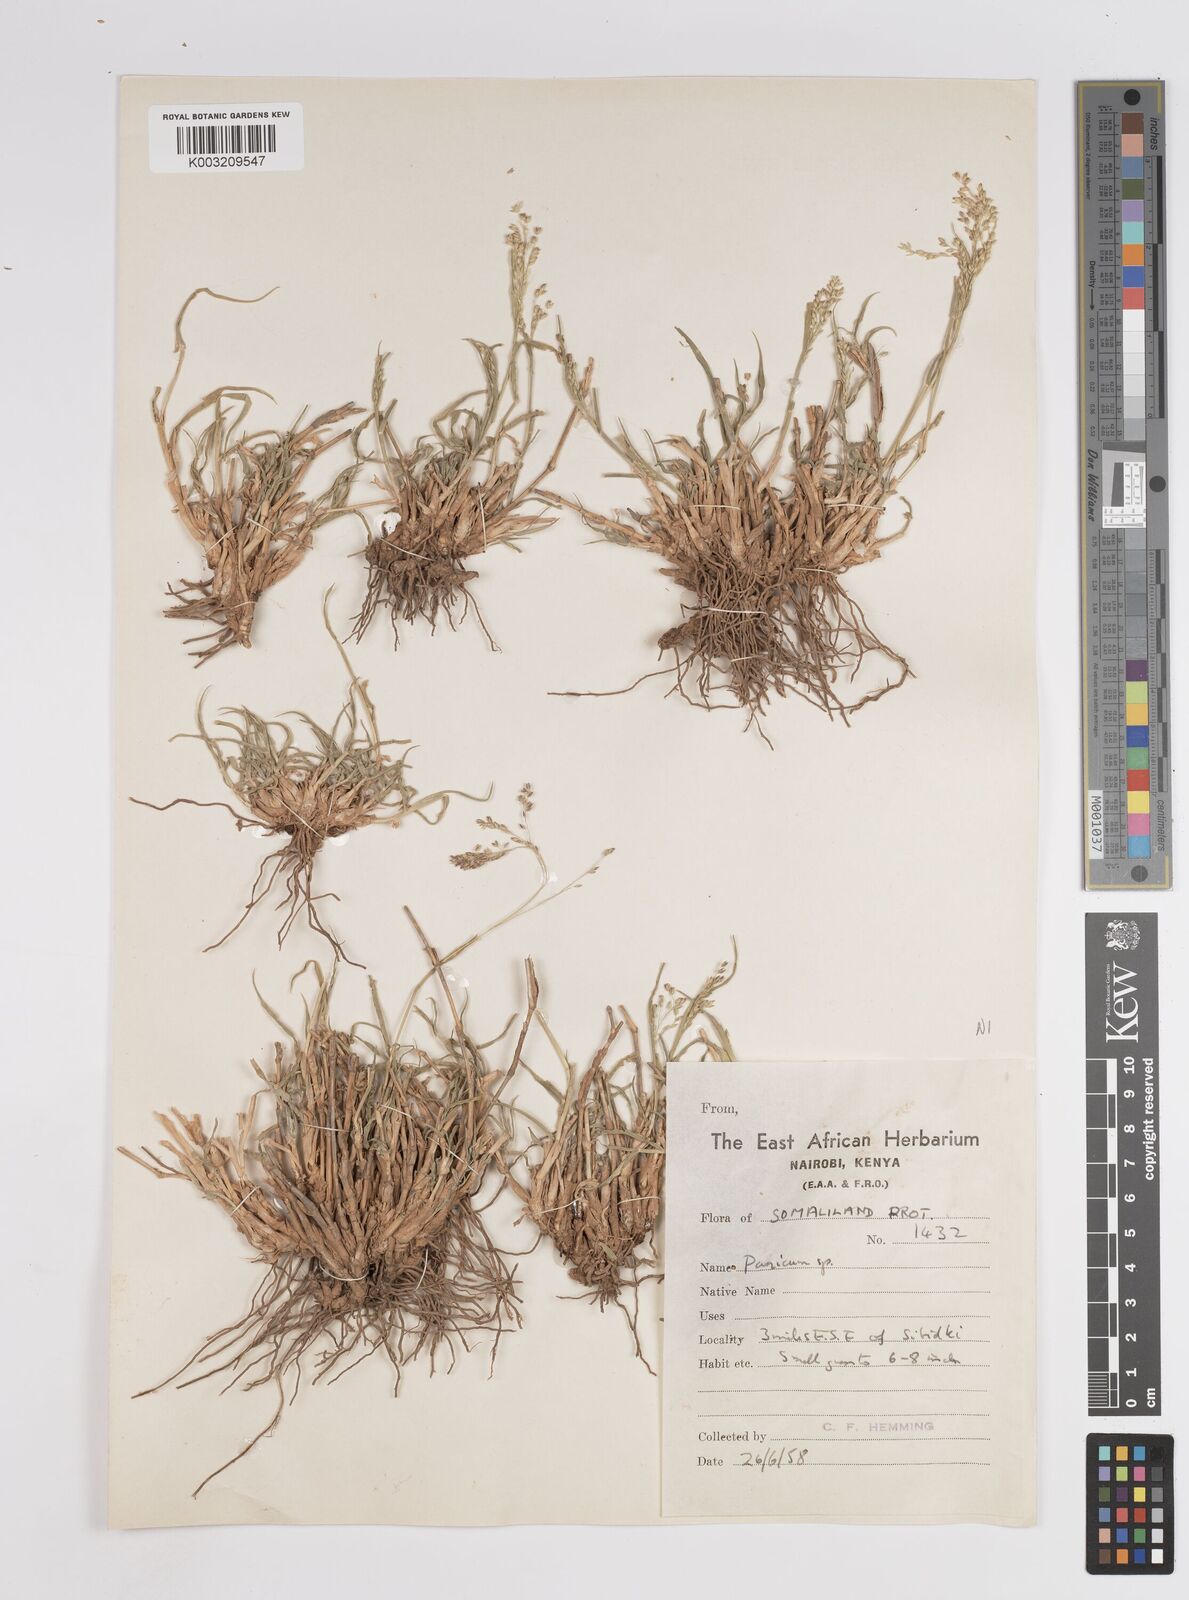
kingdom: Plantae
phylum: Tracheophyta
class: Liliopsida
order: Poales
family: Poaceae
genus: Panicum
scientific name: Panicum coloratum
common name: Kleingrass
